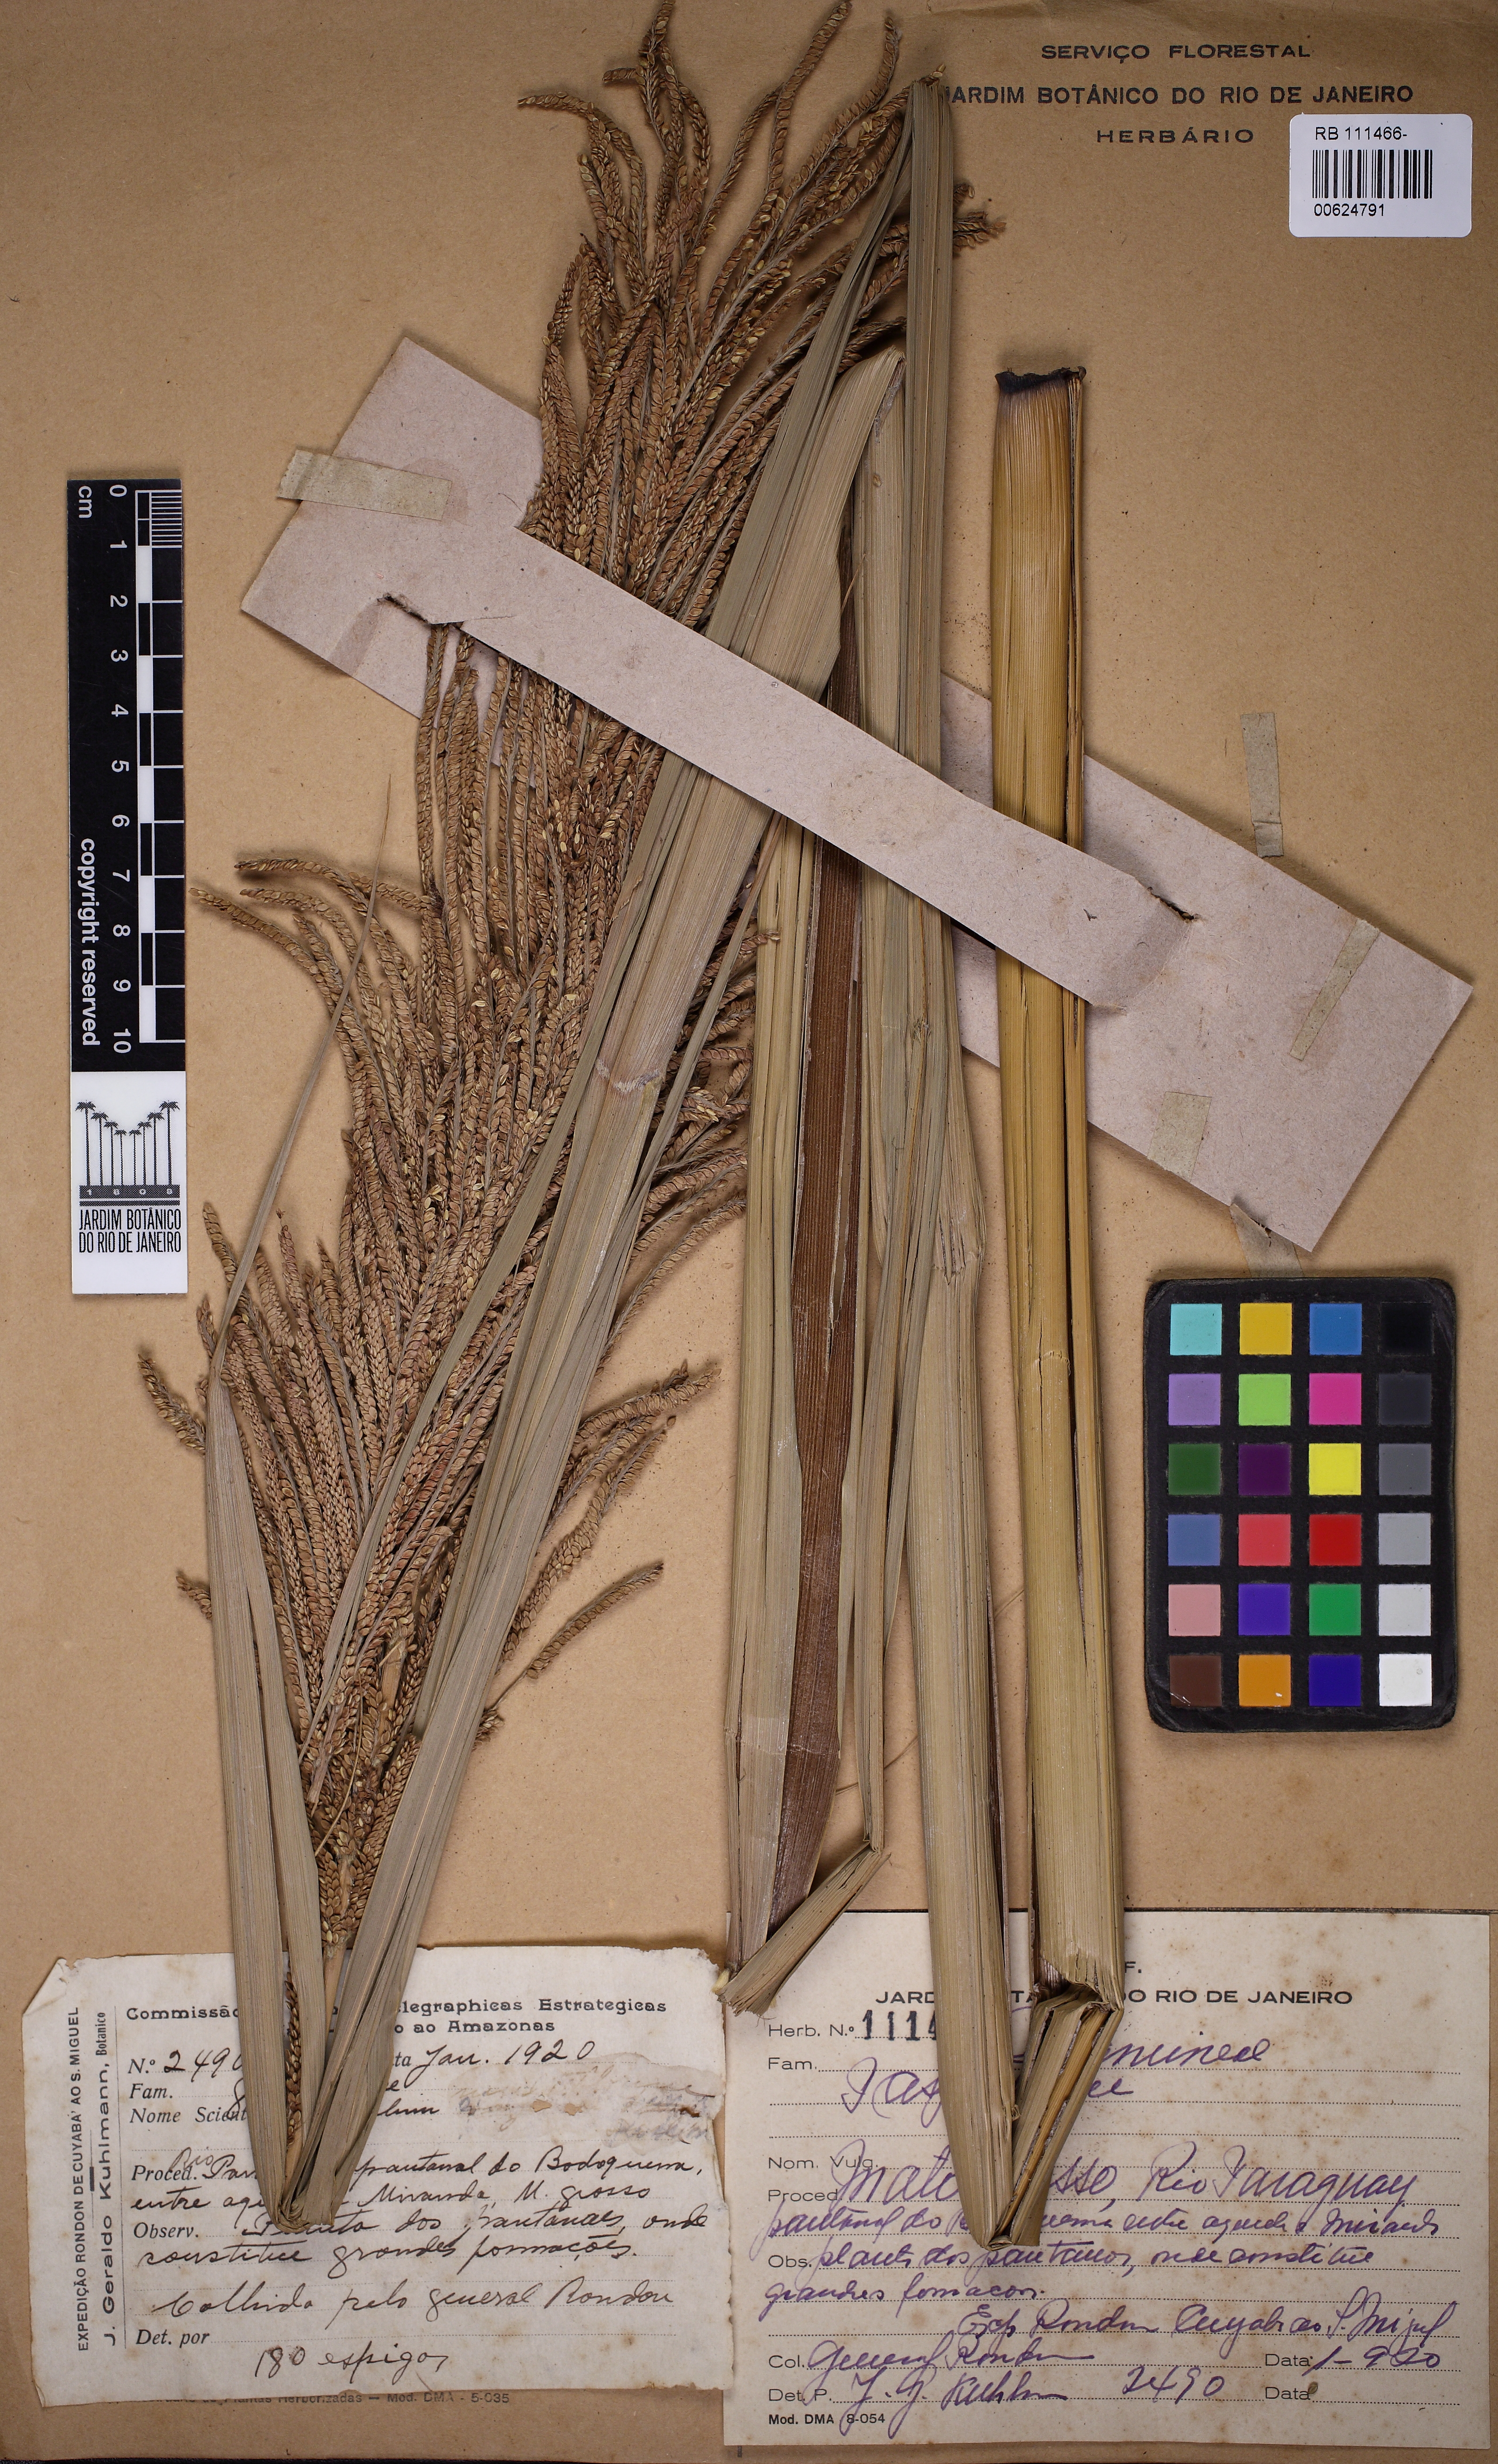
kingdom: Plantae
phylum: Tracheophyta
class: Liliopsida
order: Poales
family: Poaceae
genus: Paspalum
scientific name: Paspalum
